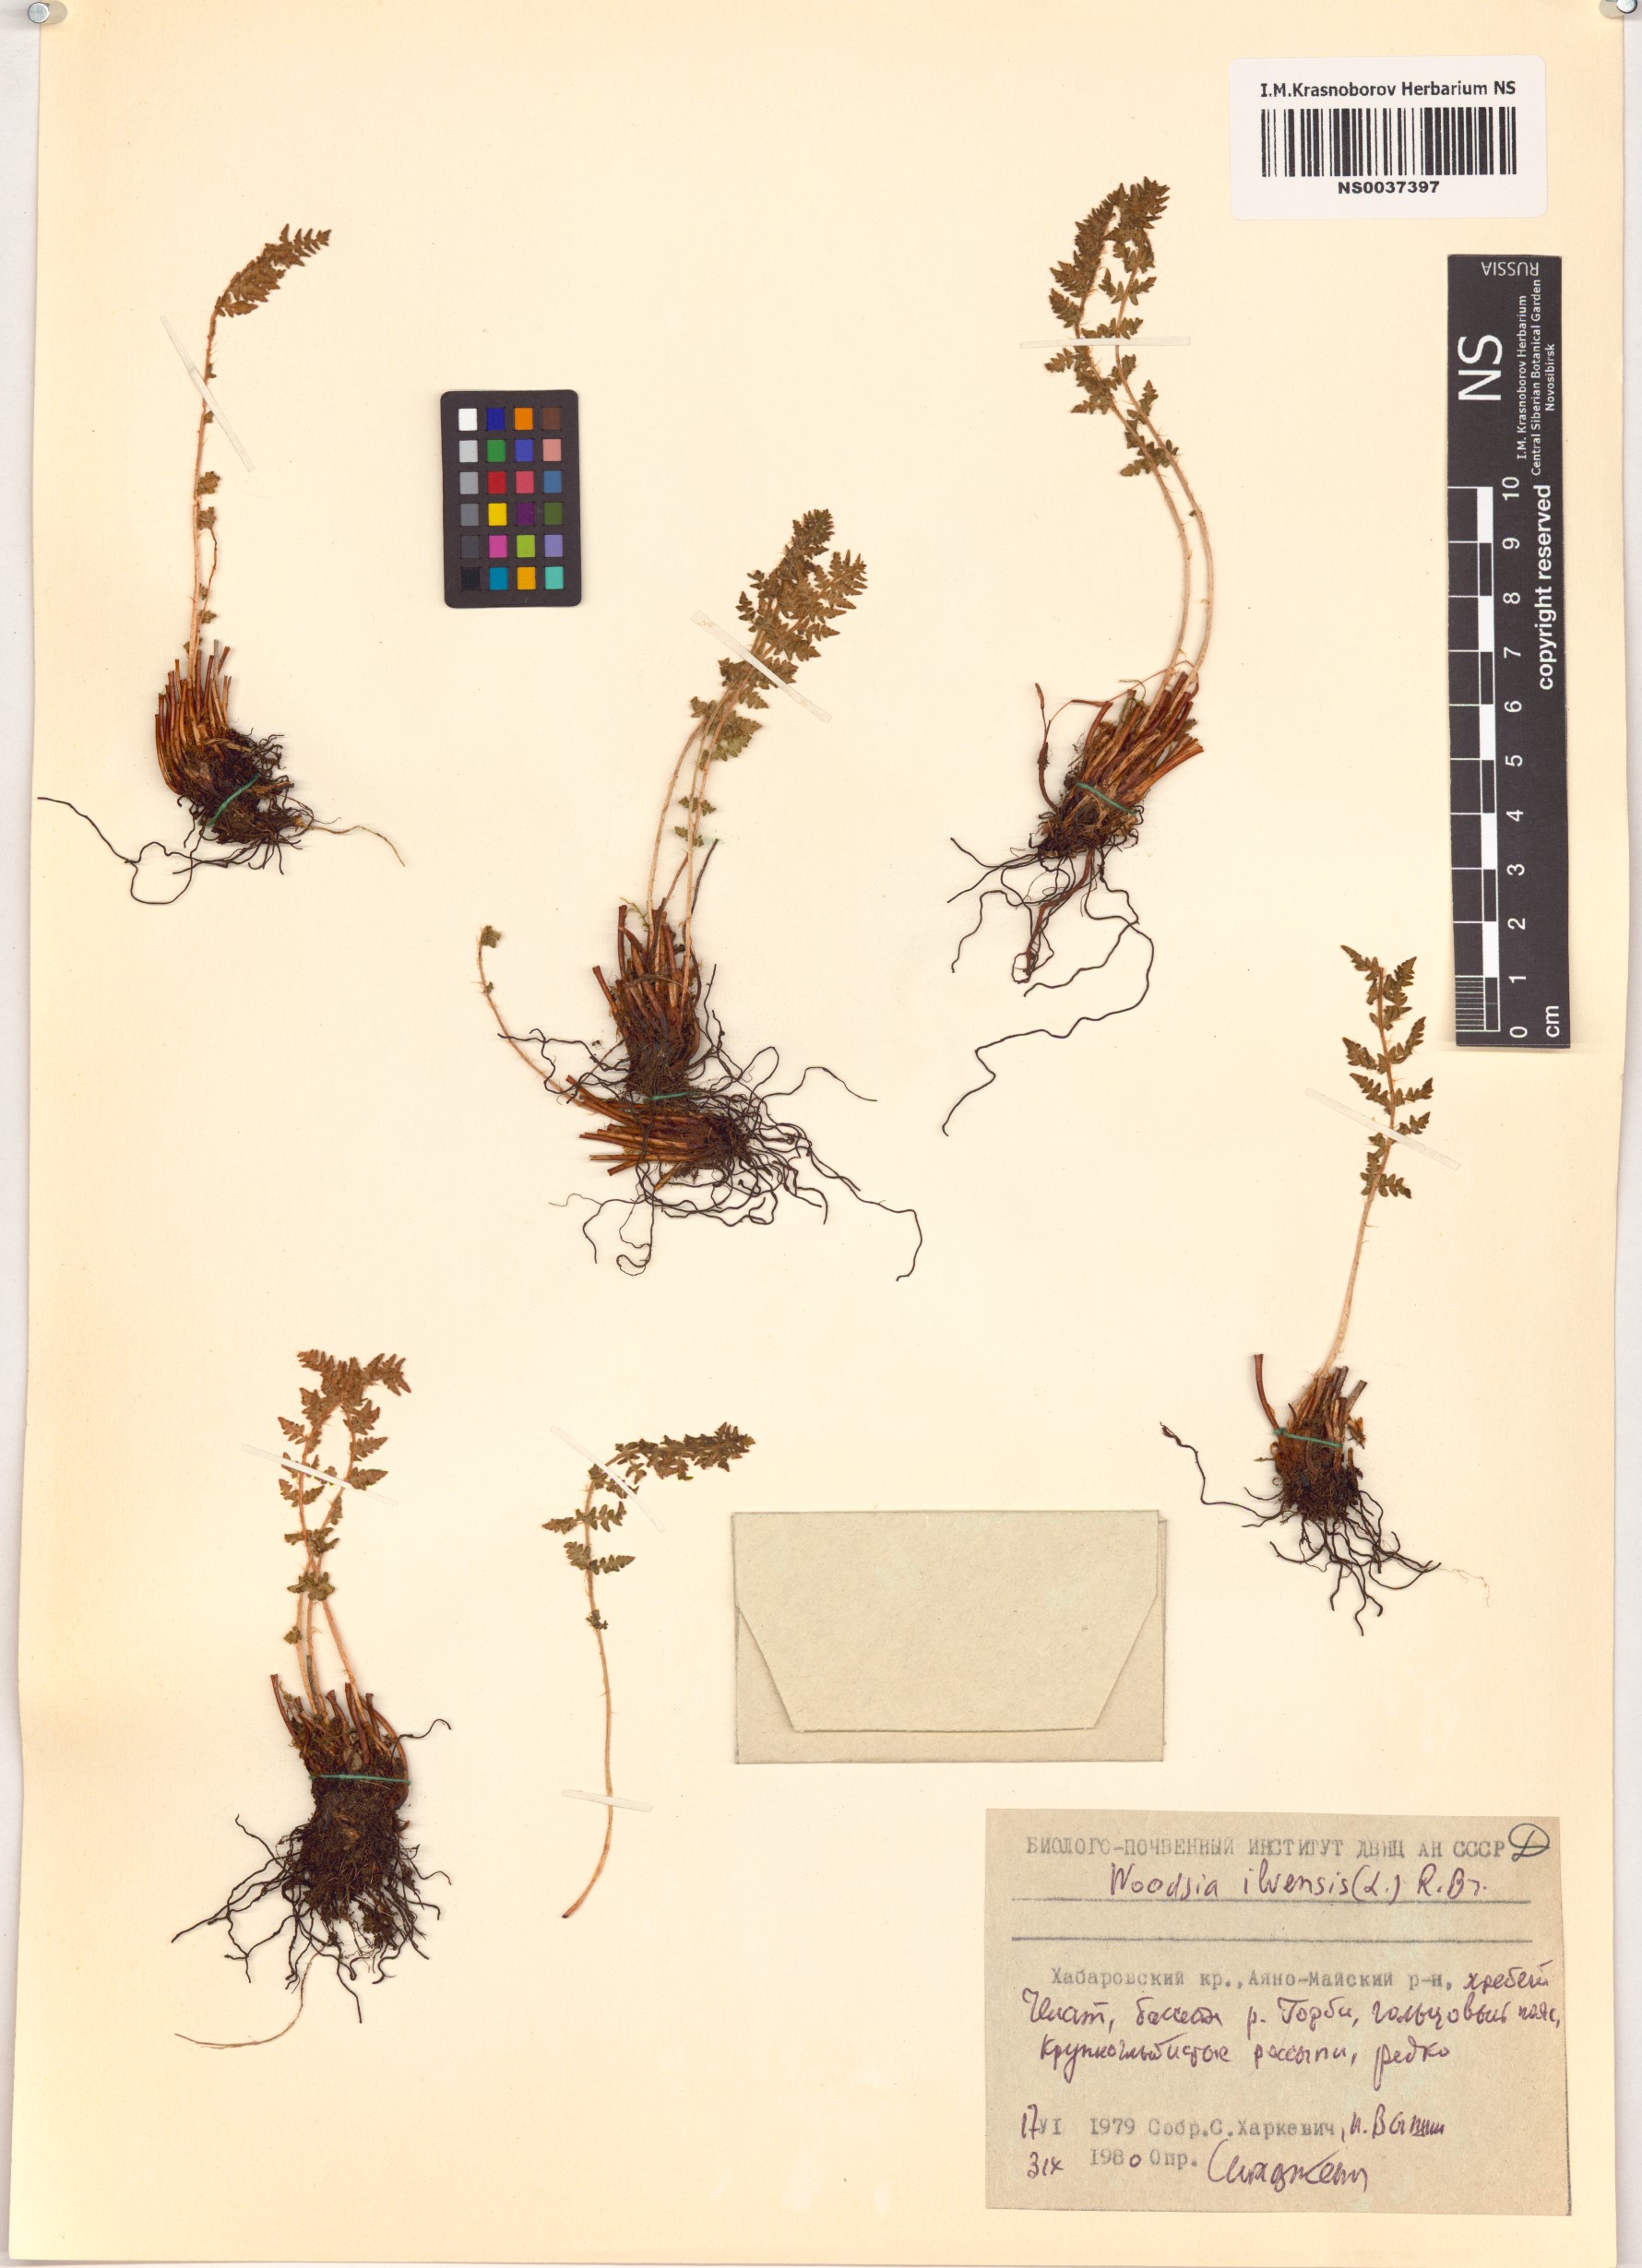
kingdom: Plantae
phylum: Tracheophyta
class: Polypodiopsida
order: Polypodiales
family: Woodsiaceae
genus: Woodsia
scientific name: Woodsia ilvensis
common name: Fragrant woodsia
